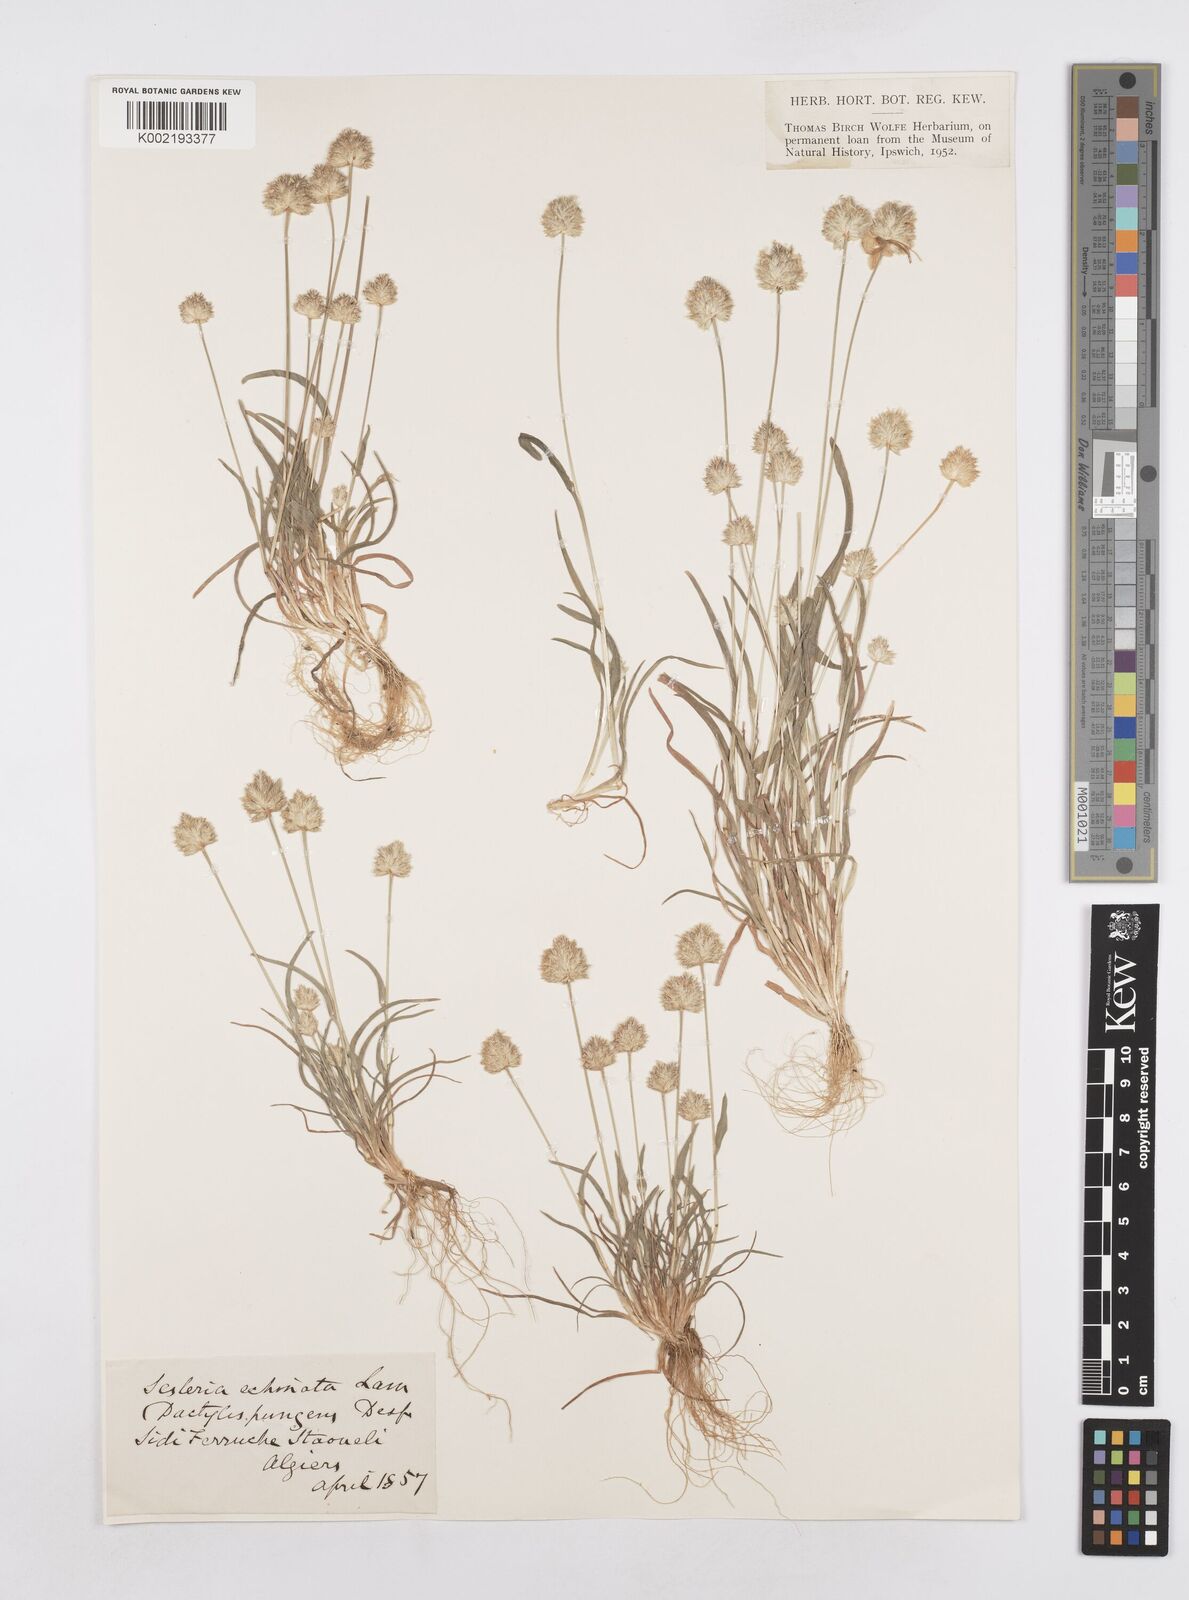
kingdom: Plantae
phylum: Tracheophyta
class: Liliopsida
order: Poales
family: Poaceae
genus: Echinaria
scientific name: Echinaria capitata
